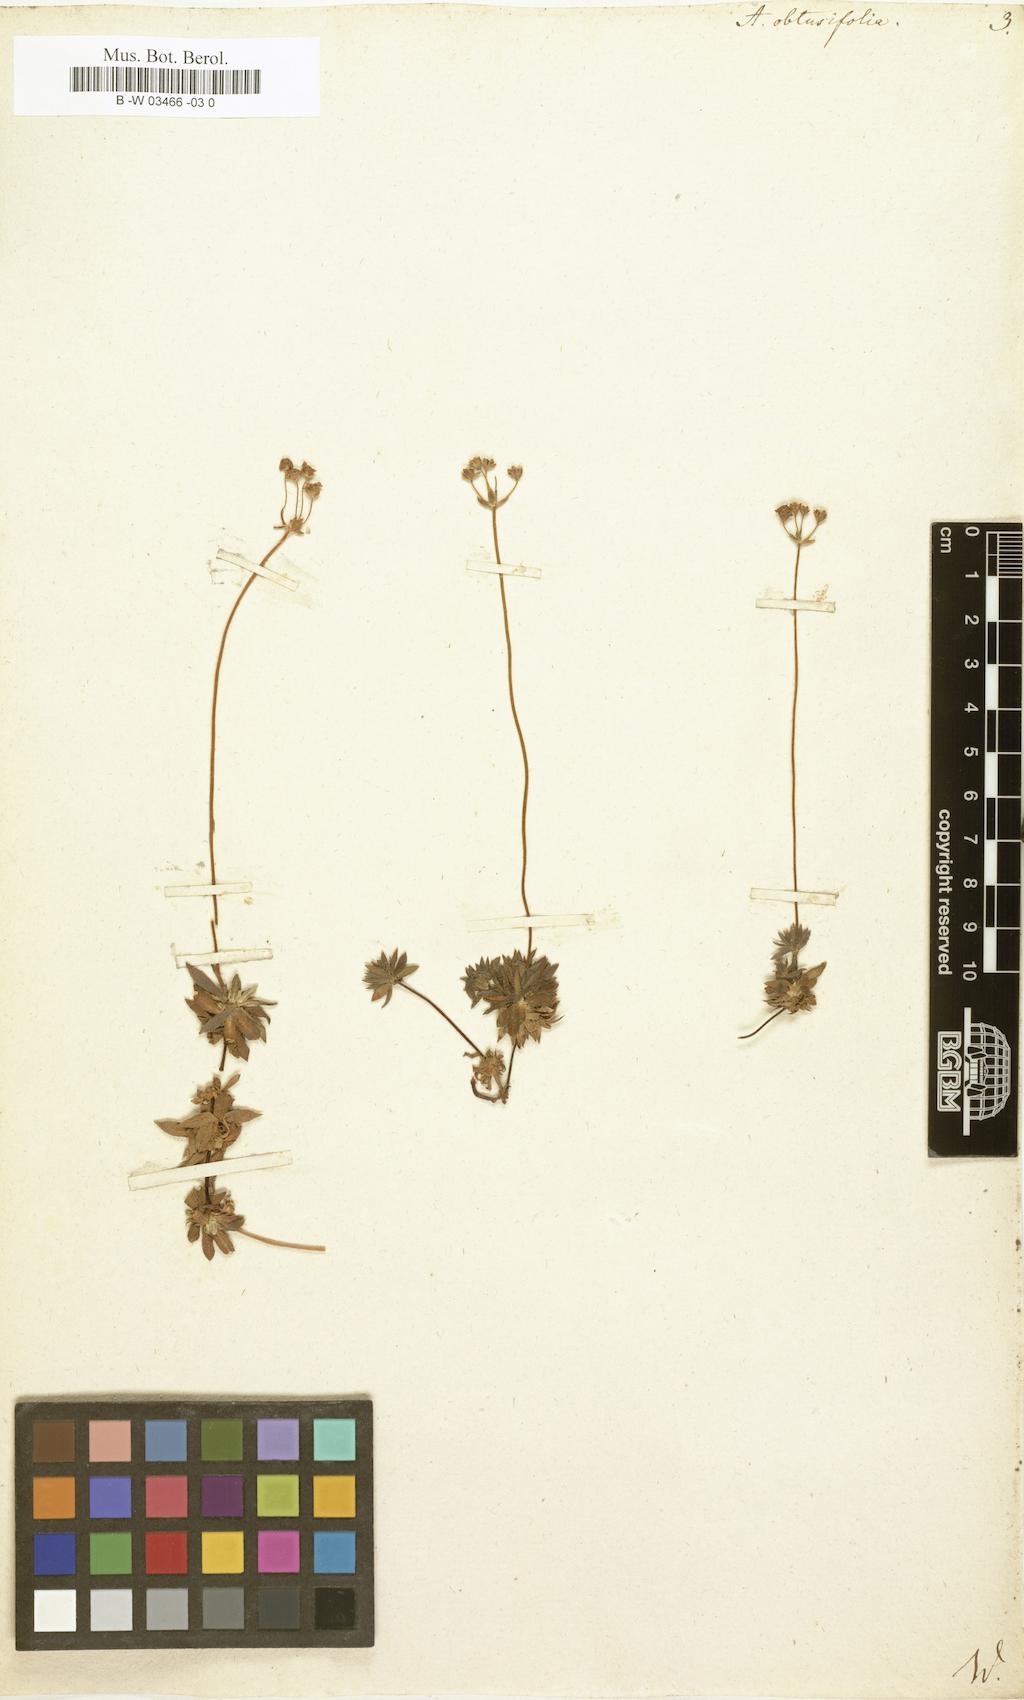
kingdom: Plantae
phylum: Tracheophyta
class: Magnoliopsida
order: Ericales
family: Primulaceae
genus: Androsace
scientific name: Androsace obtusifolia
